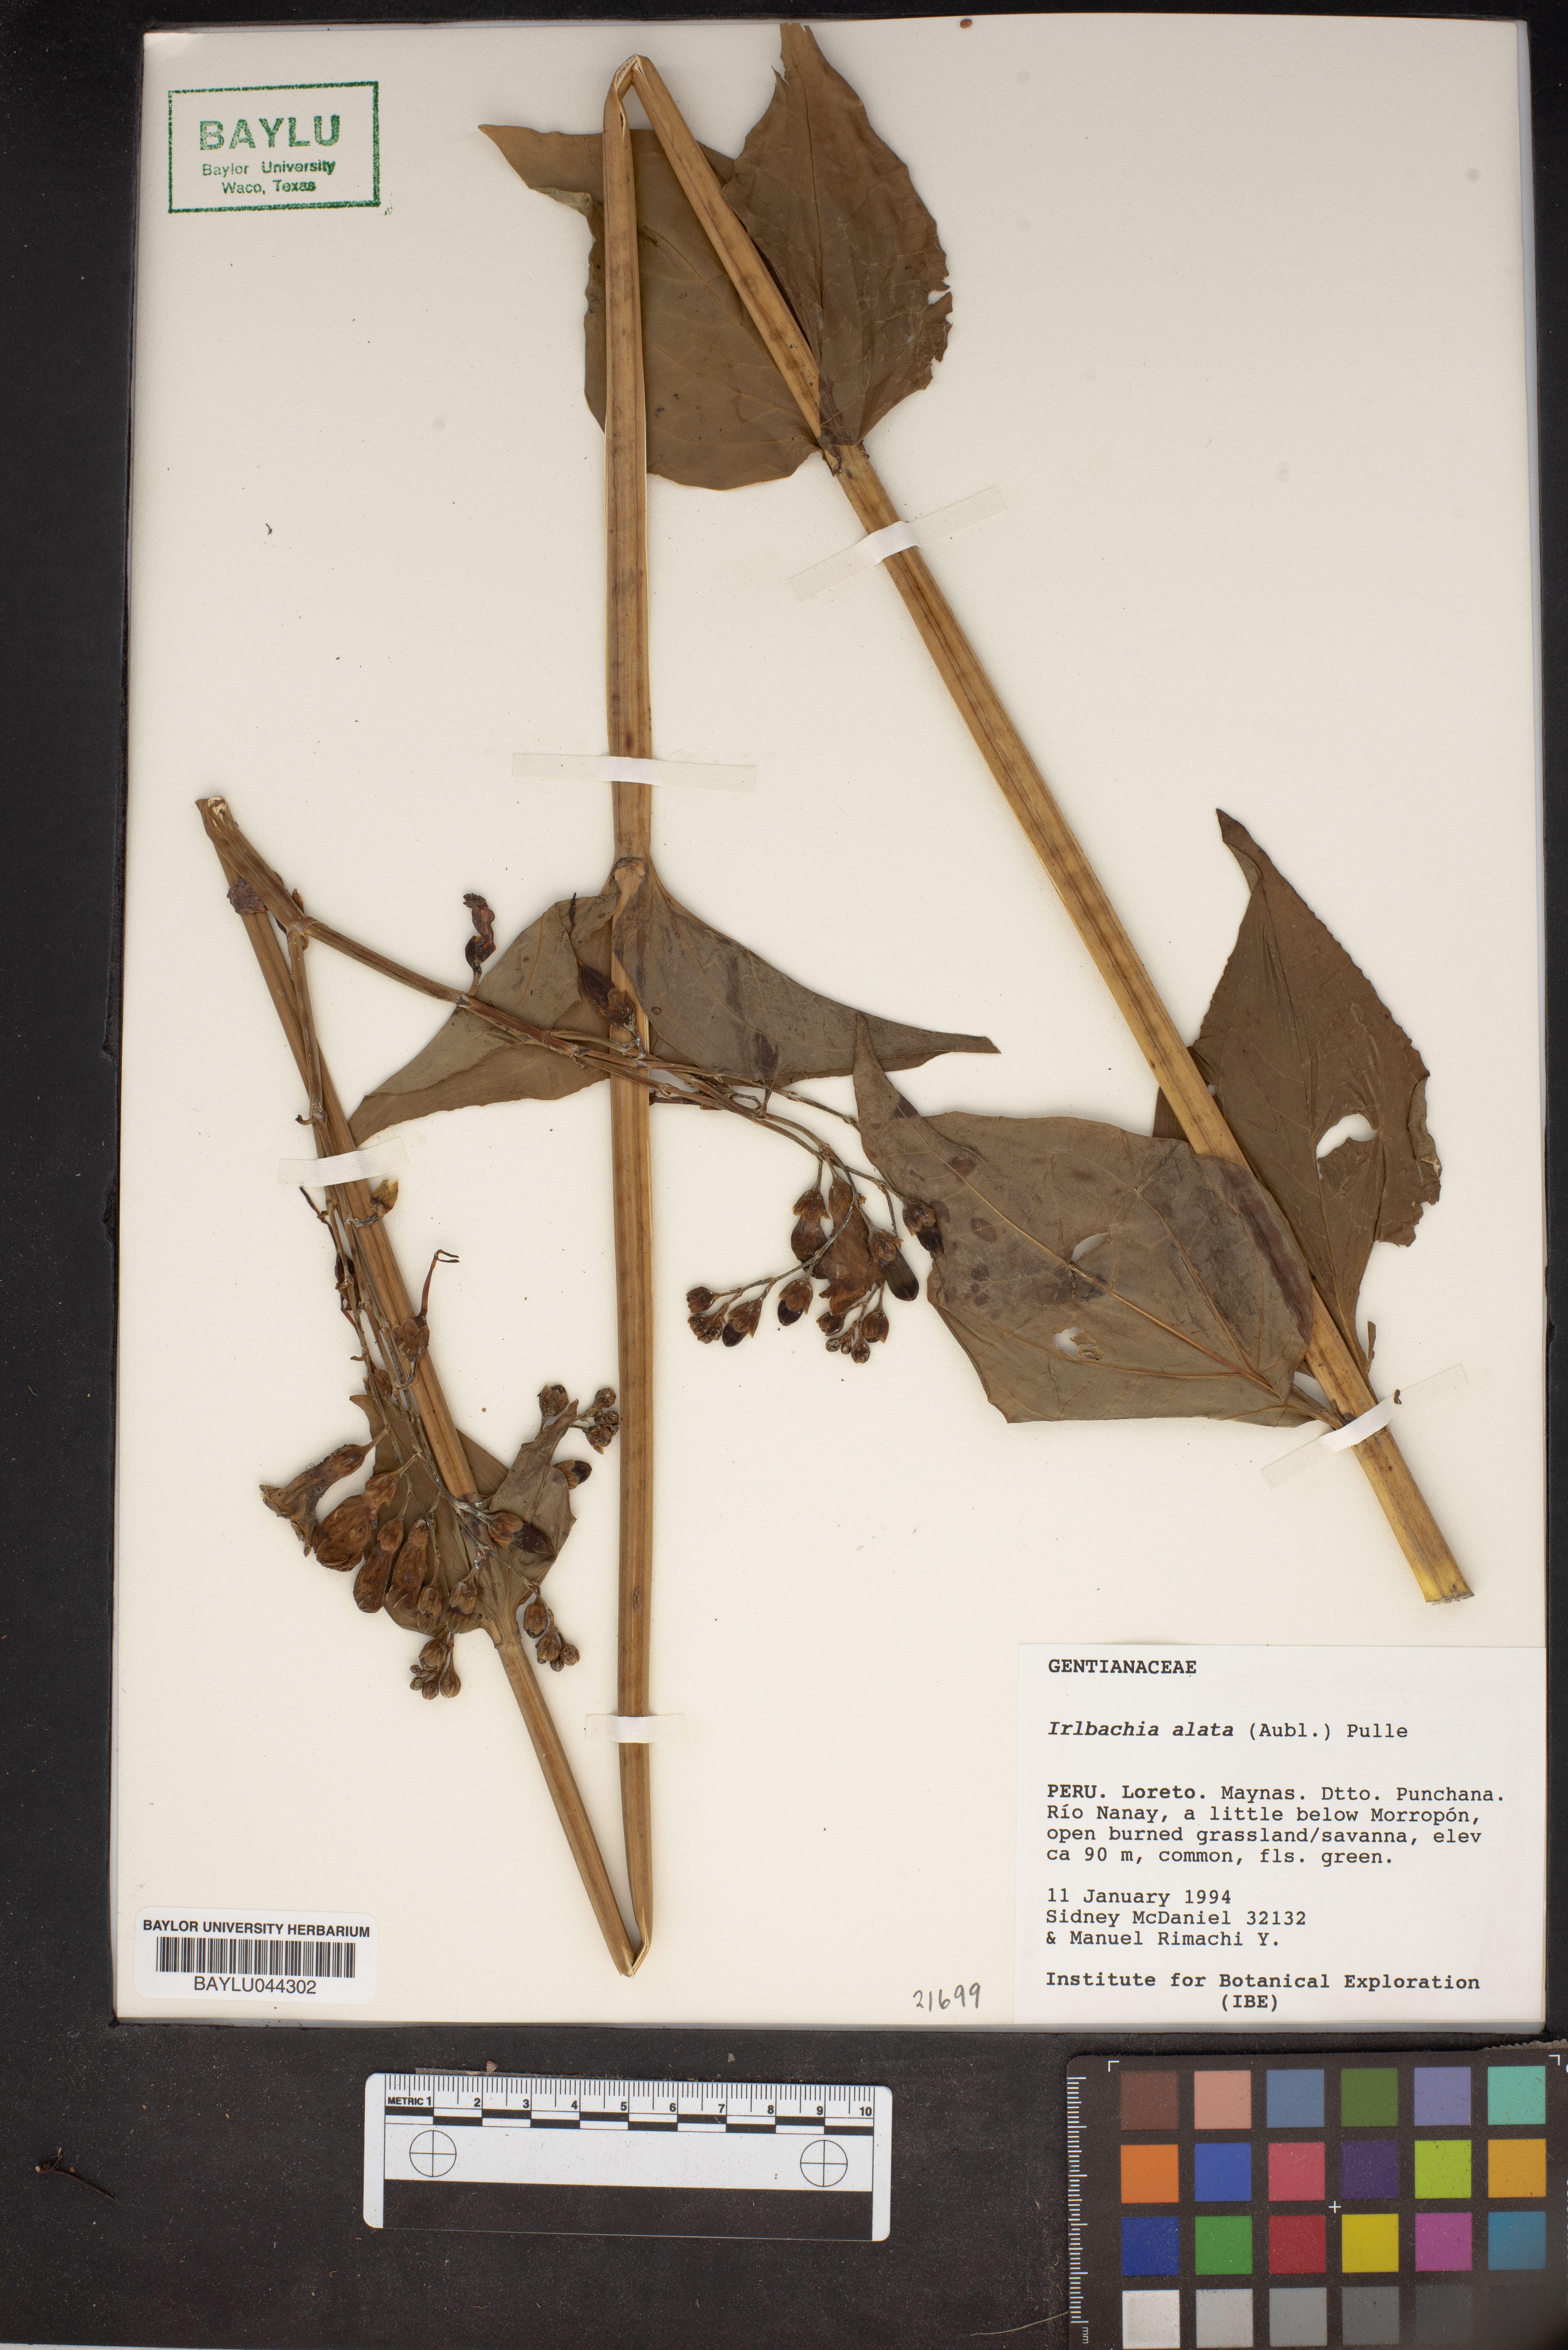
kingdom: Plantae
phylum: Tracheophyta
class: Magnoliopsida
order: Gentianales
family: Gentianaceae
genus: Chelonanthus
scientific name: Chelonanthus alatus
